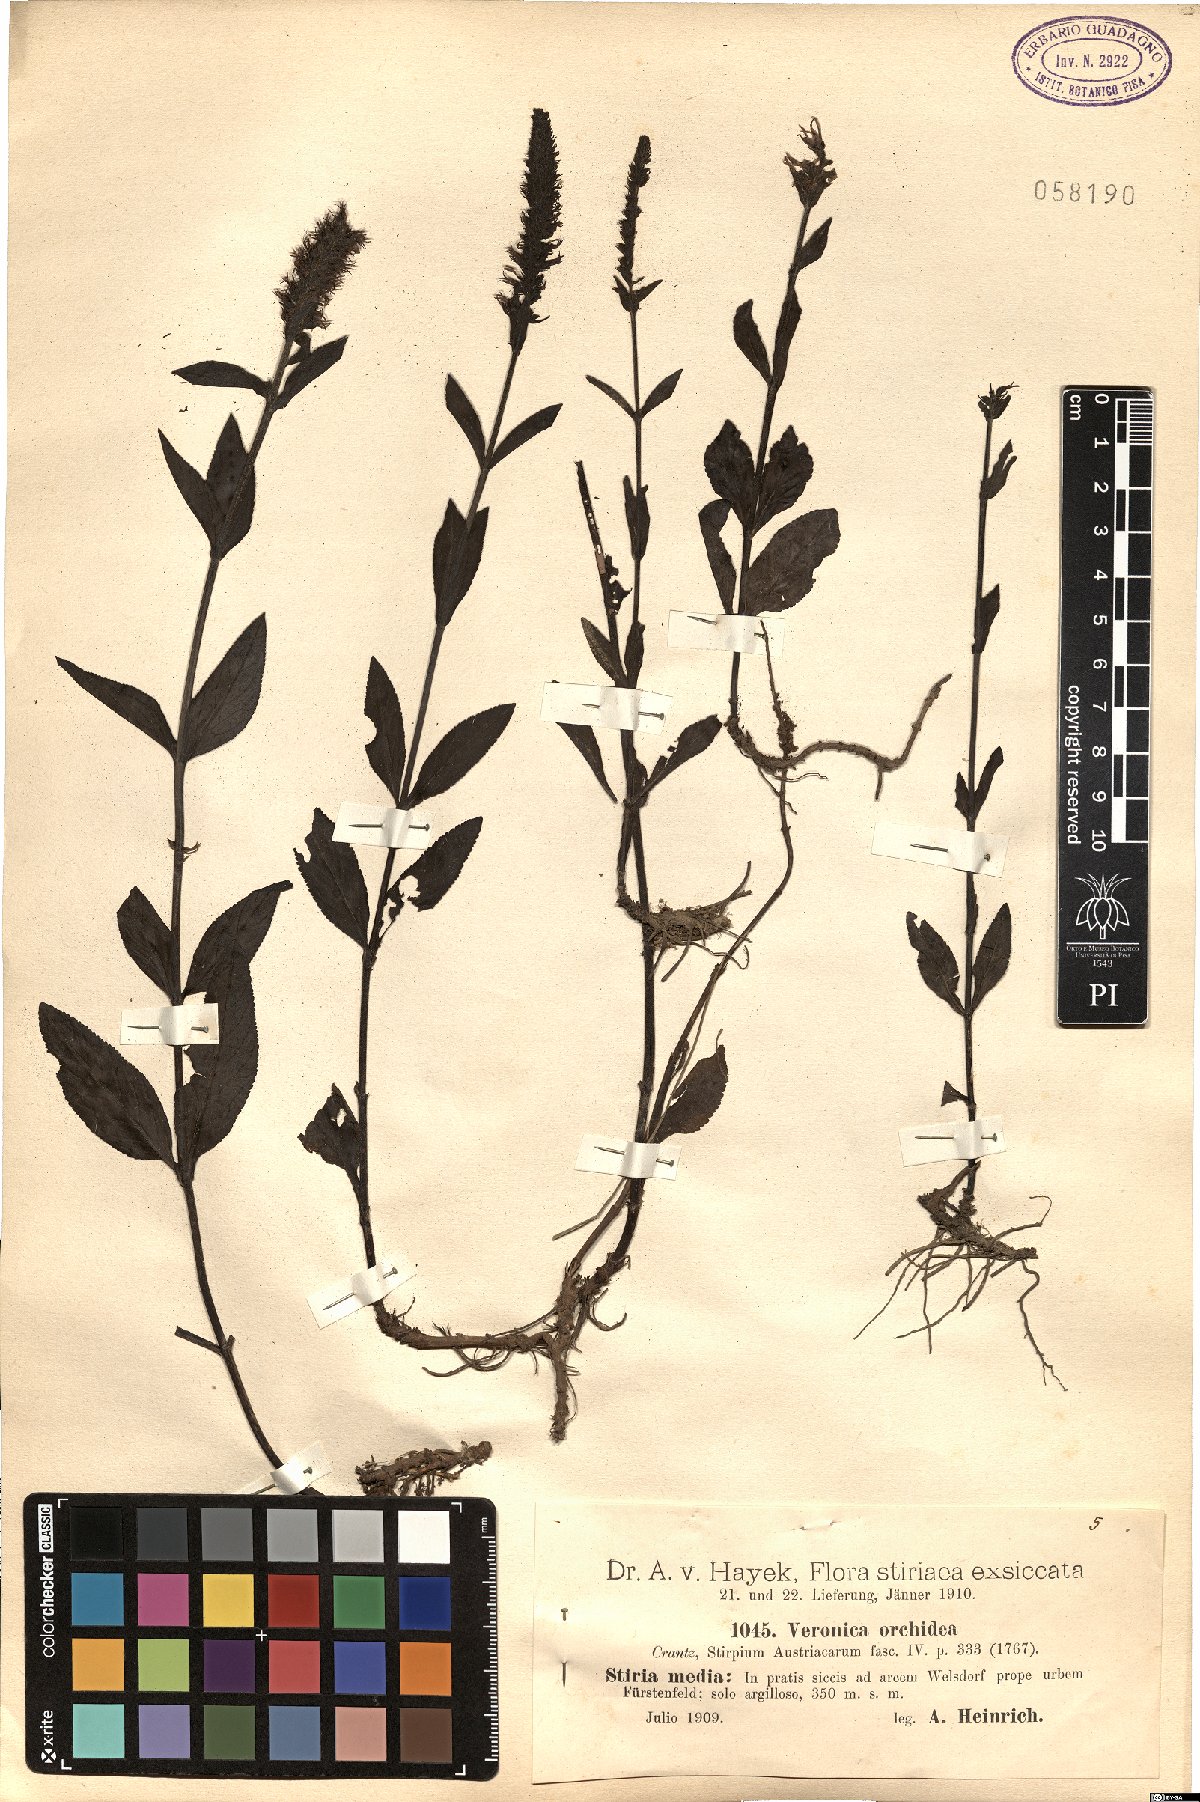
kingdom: Plantae
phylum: Tracheophyta
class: Magnoliopsida
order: Lamiales
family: Plantaginaceae
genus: Veronica
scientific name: Veronica orchidea
